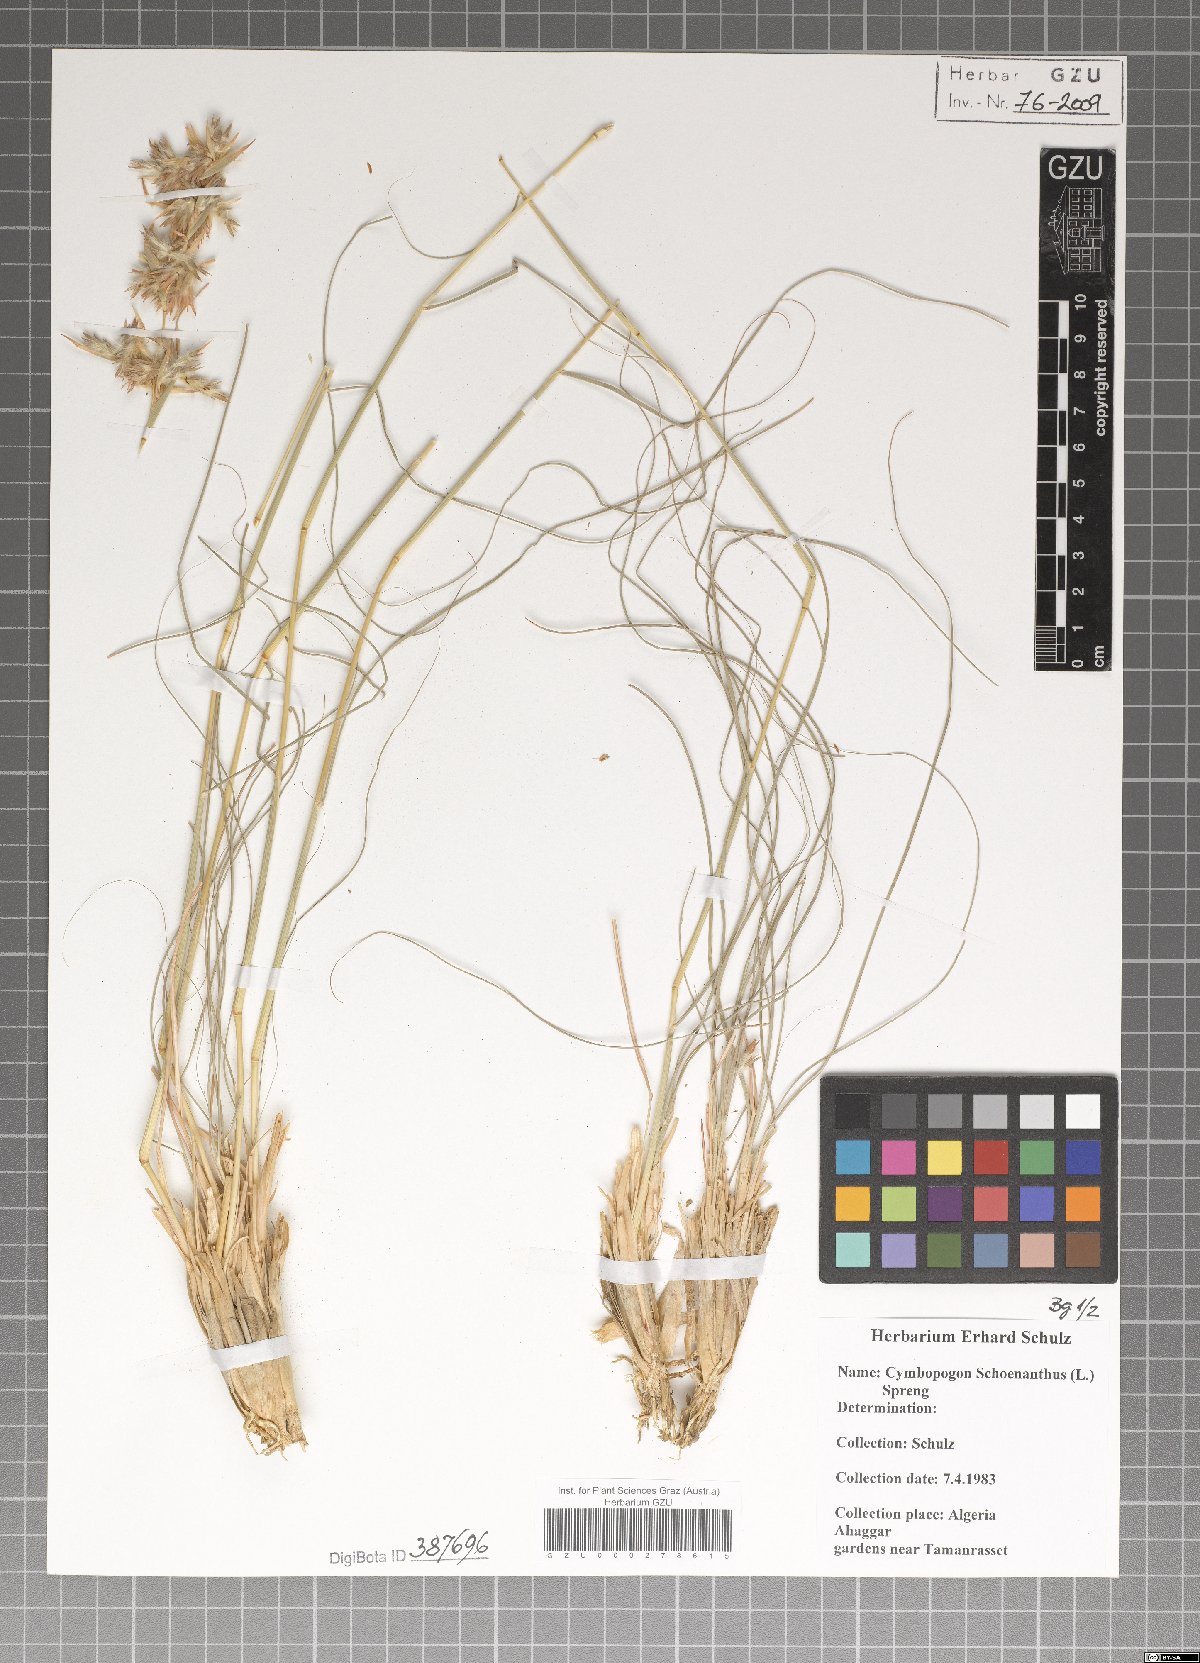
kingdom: Plantae
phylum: Tracheophyta
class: Liliopsida
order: Poales
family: Poaceae
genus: Cymbopogon
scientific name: Cymbopogon schoenanthus
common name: Geranium grass
